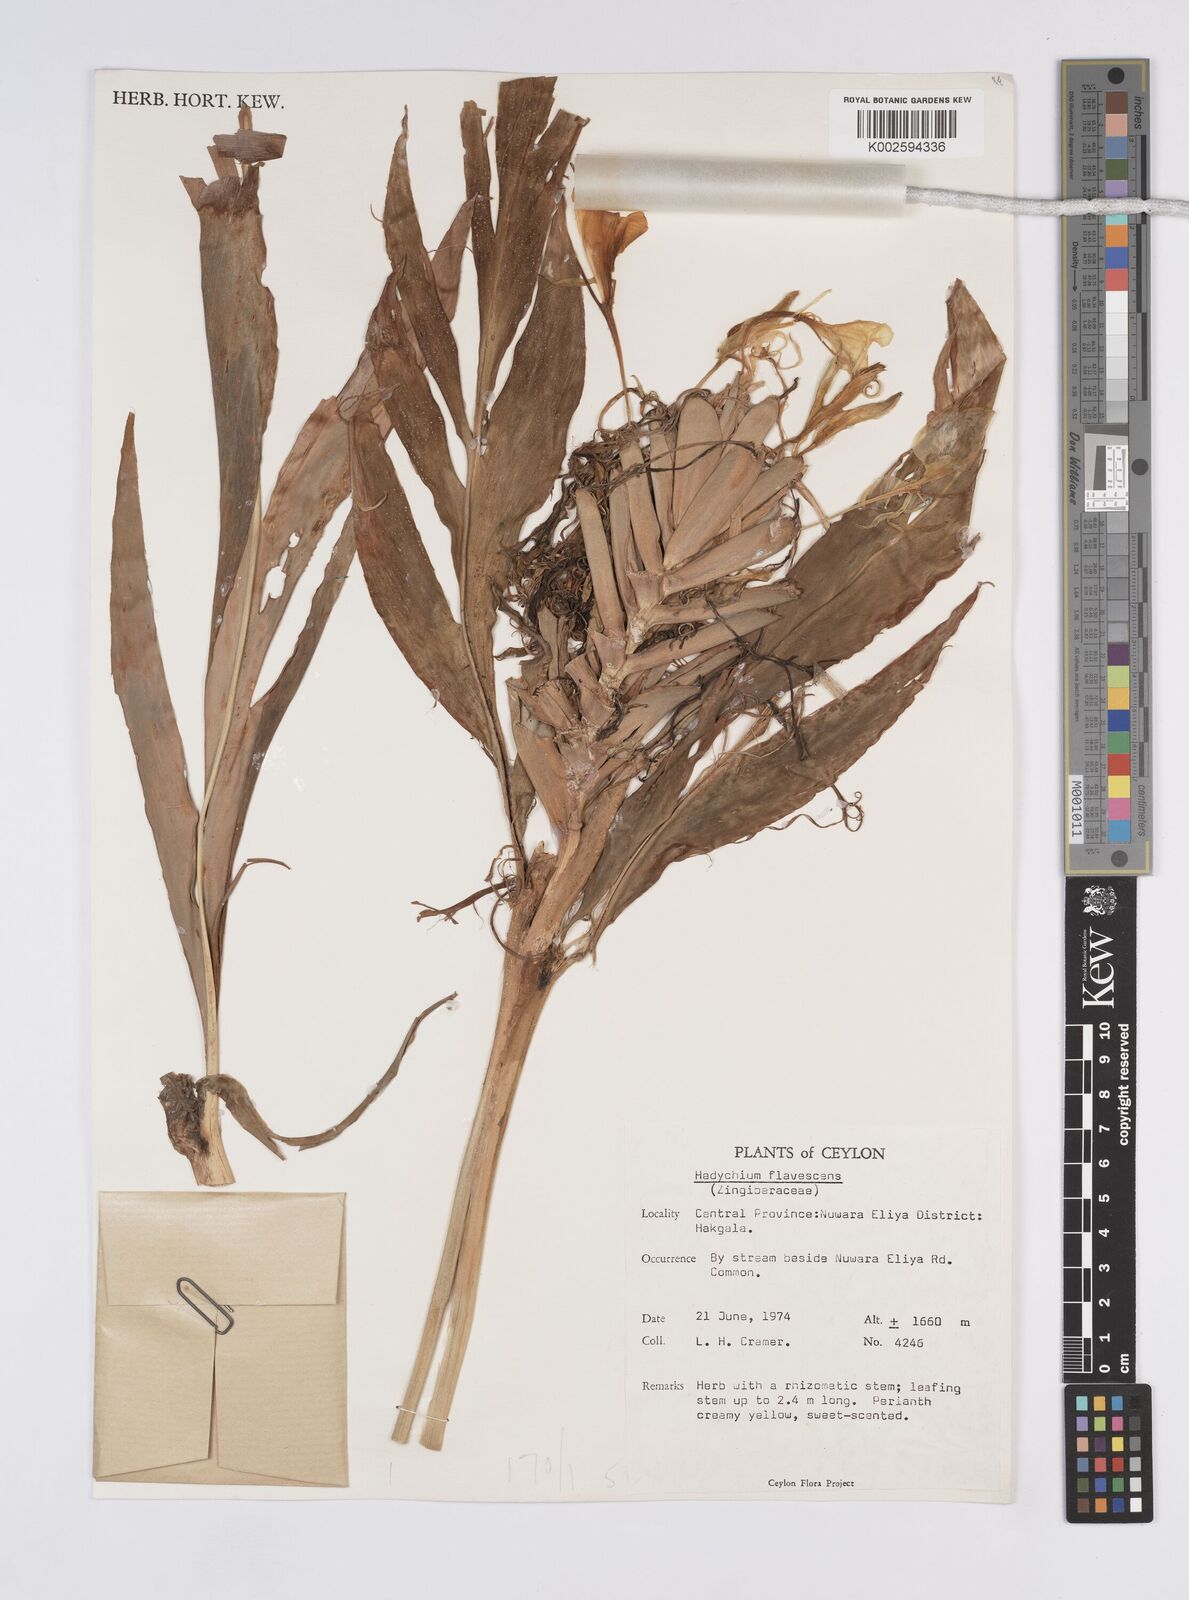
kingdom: Plantae
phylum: Tracheophyta
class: Liliopsida
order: Zingiberales
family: Zingiberaceae
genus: Hedychium
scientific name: Hedychium flavescens
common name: Yellow ginger
